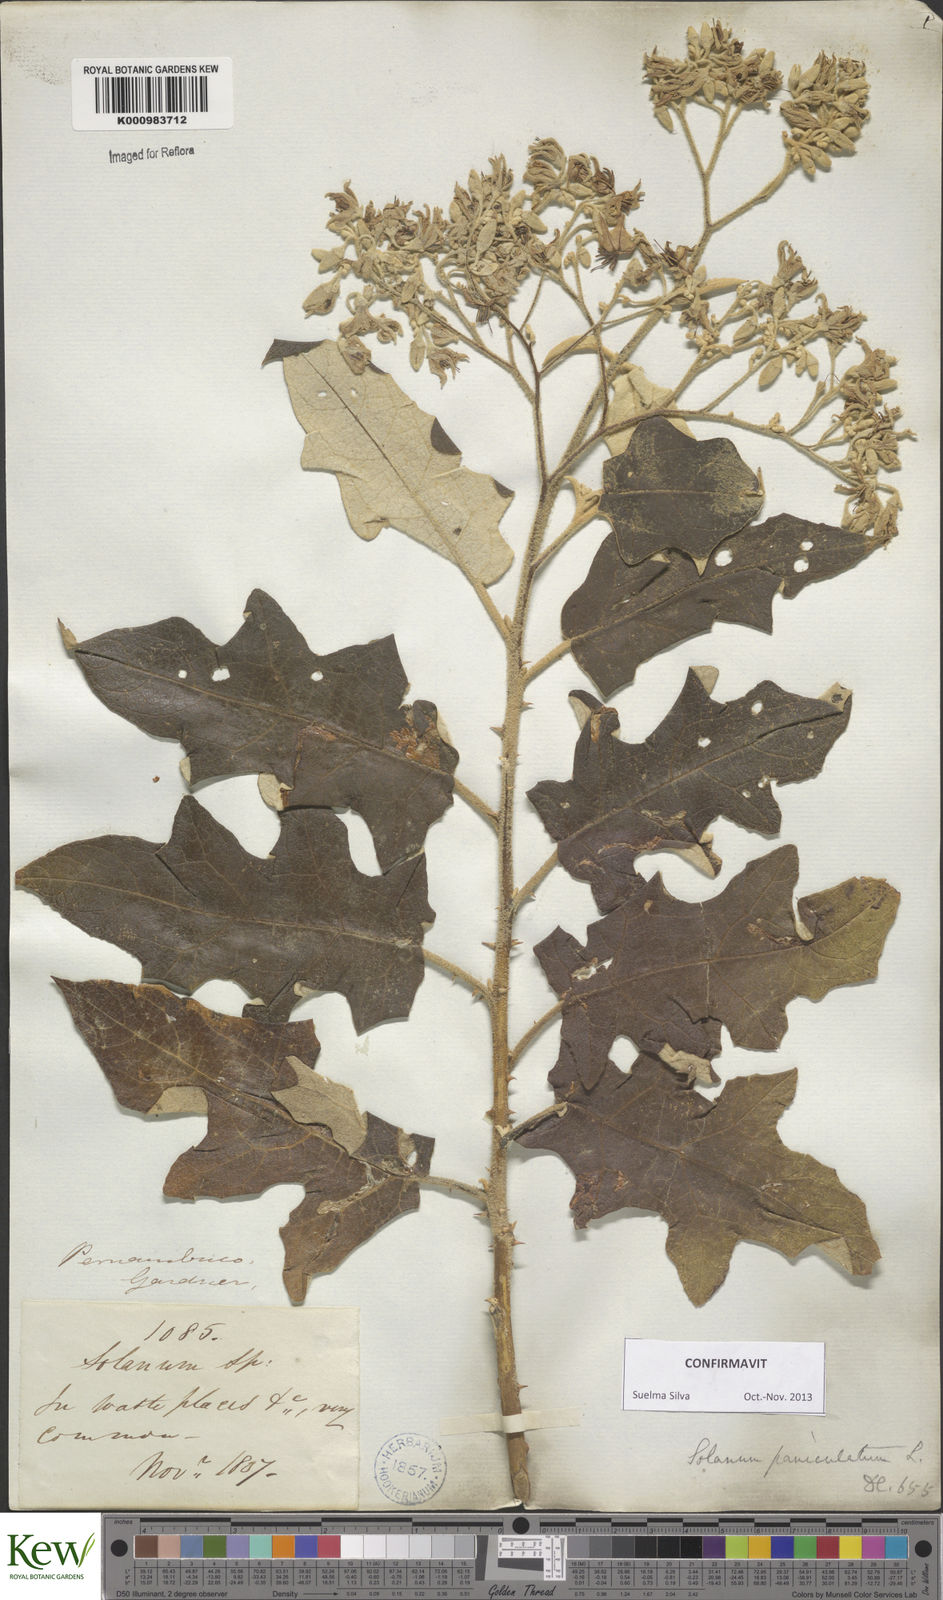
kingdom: Plantae
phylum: Tracheophyta
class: Magnoliopsida
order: Solanales
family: Solanaceae
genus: Solanum
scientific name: Solanum paniculatum
